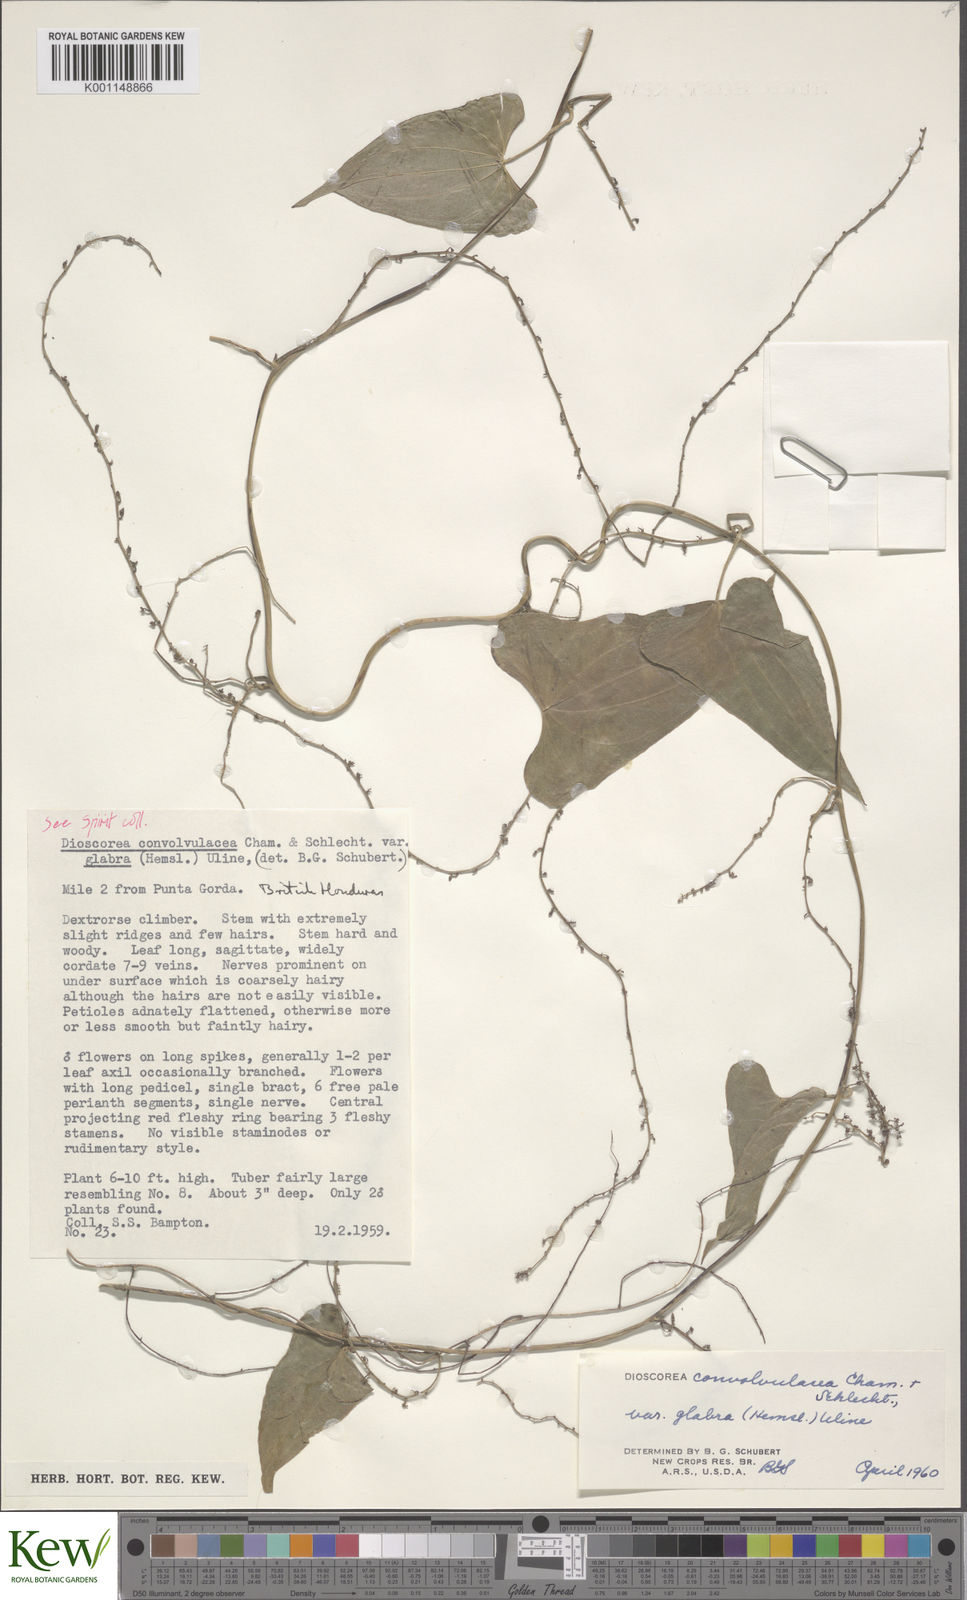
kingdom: Plantae
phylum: Tracheophyta
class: Liliopsida
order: Dioscoreales
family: Dioscoreaceae
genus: Dioscorea
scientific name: Dioscorea convolvulacea
